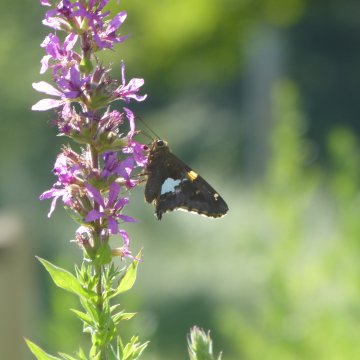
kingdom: Animalia
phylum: Arthropoda
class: Insecta
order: Lepidoptera
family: Hesperiidae
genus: Epargyreus
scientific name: Epargyreus clarus
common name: Silver-spotted Skipper
